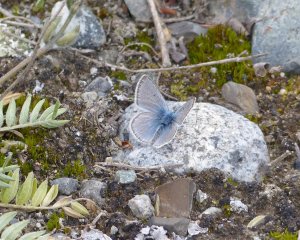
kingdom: Animalia
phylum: Arthropoda
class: Insecta
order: Lepidoptera
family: Lycaenidae
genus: Plebejus
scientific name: Plebejus saepiolus
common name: Greenish Blue
